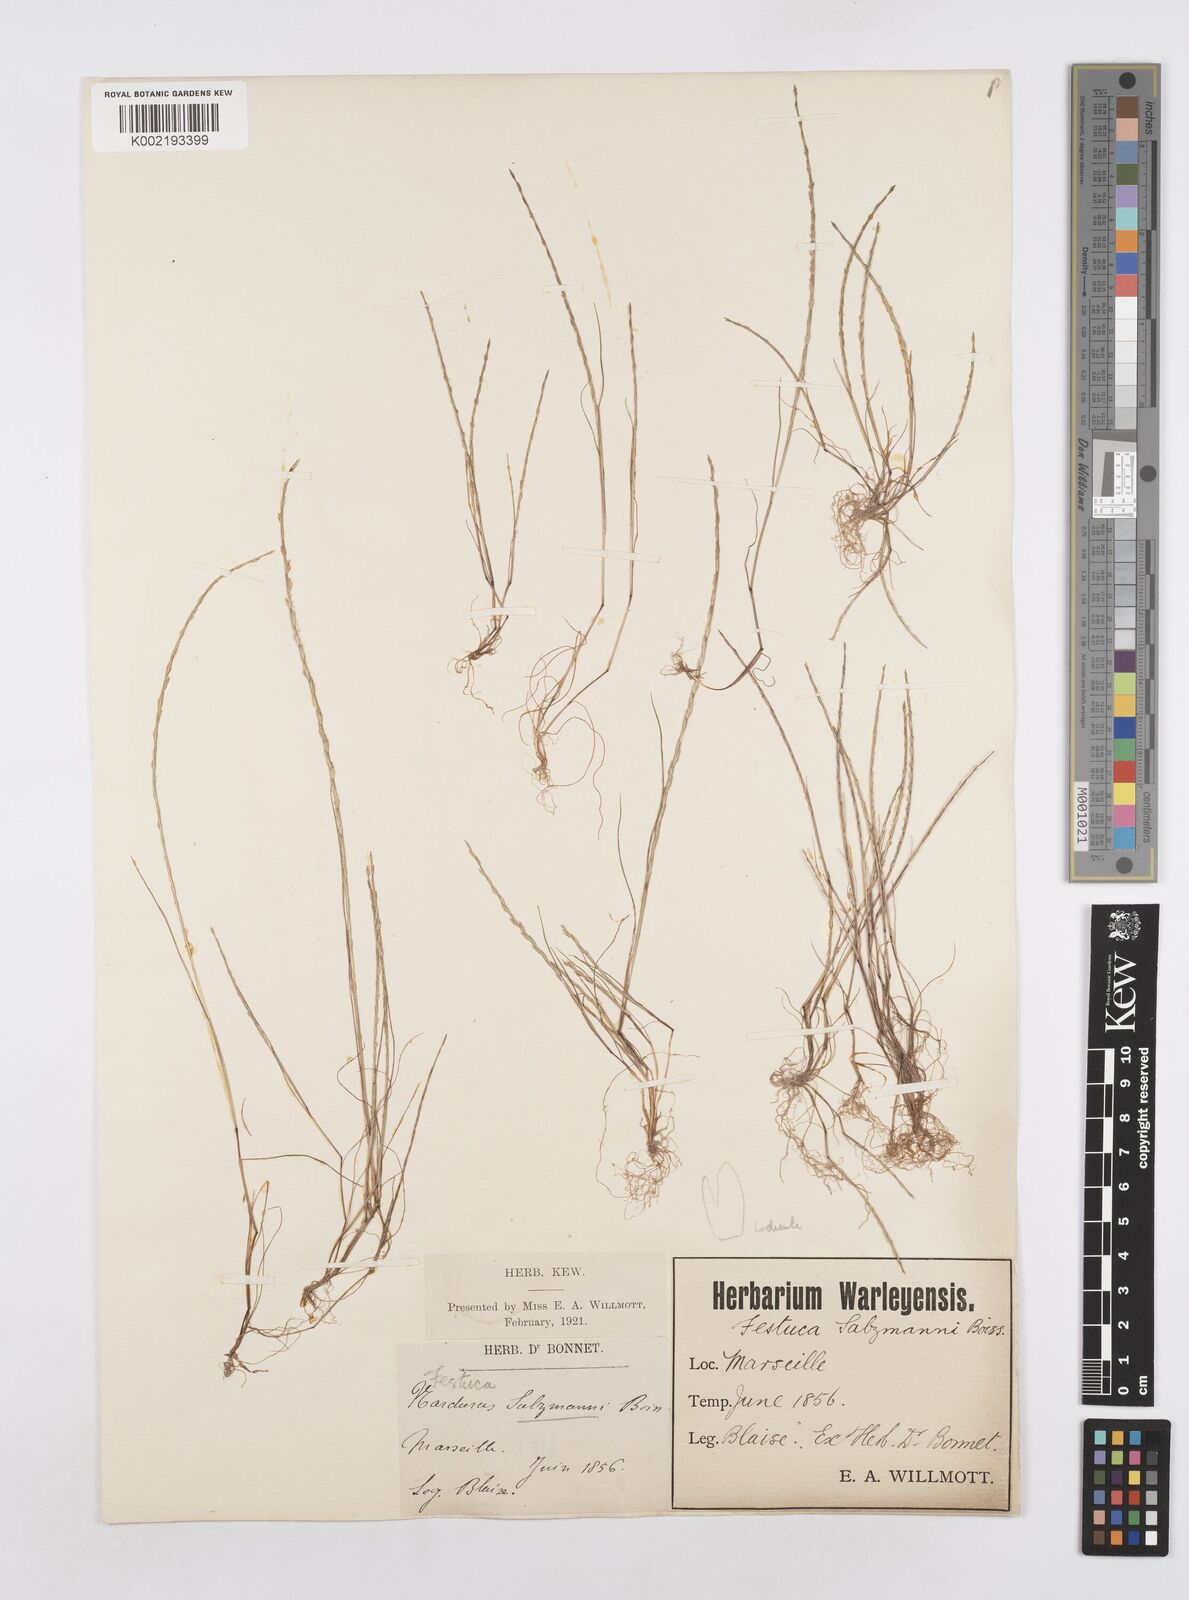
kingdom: Plantae
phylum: Tracheophyta
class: Liliopsida
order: Poales
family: Poaceae
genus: Festuca
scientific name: Festuca salzmannii
